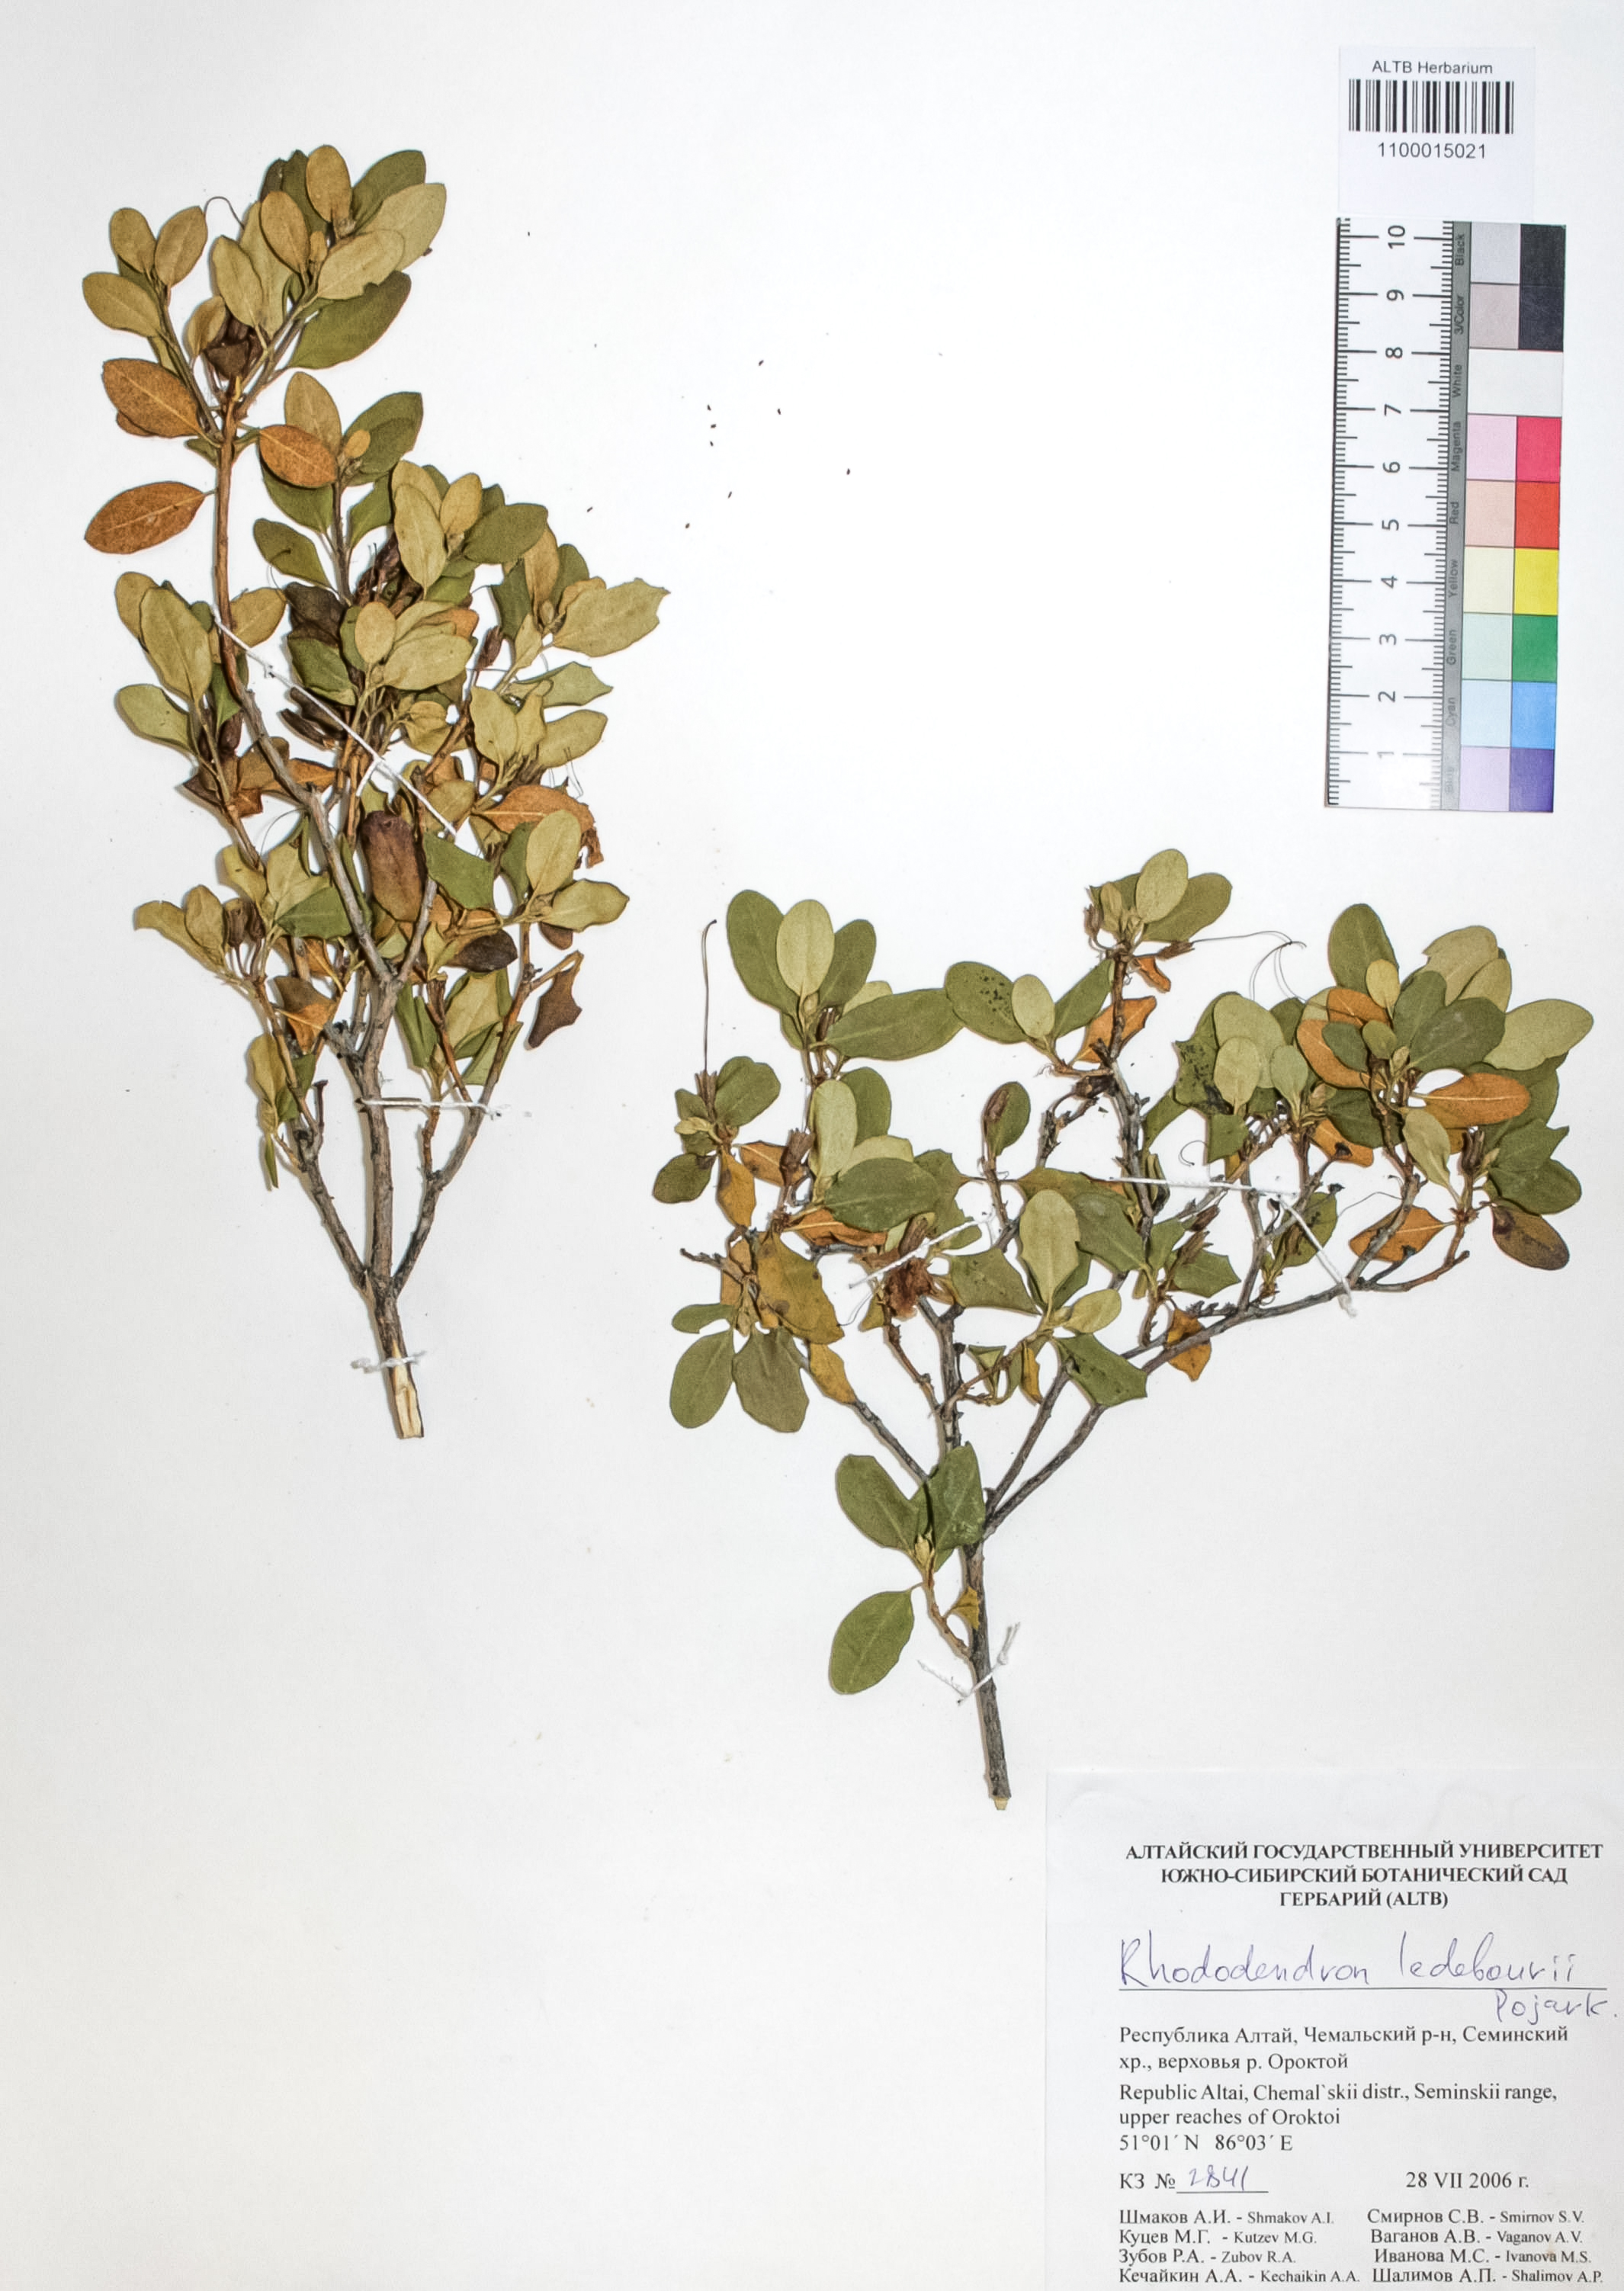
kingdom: Plantae
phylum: Tracheophyta
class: Magnoliopsida
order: Ericales
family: Ericaceae
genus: Rhododendron
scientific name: Rhododendron dauricum
